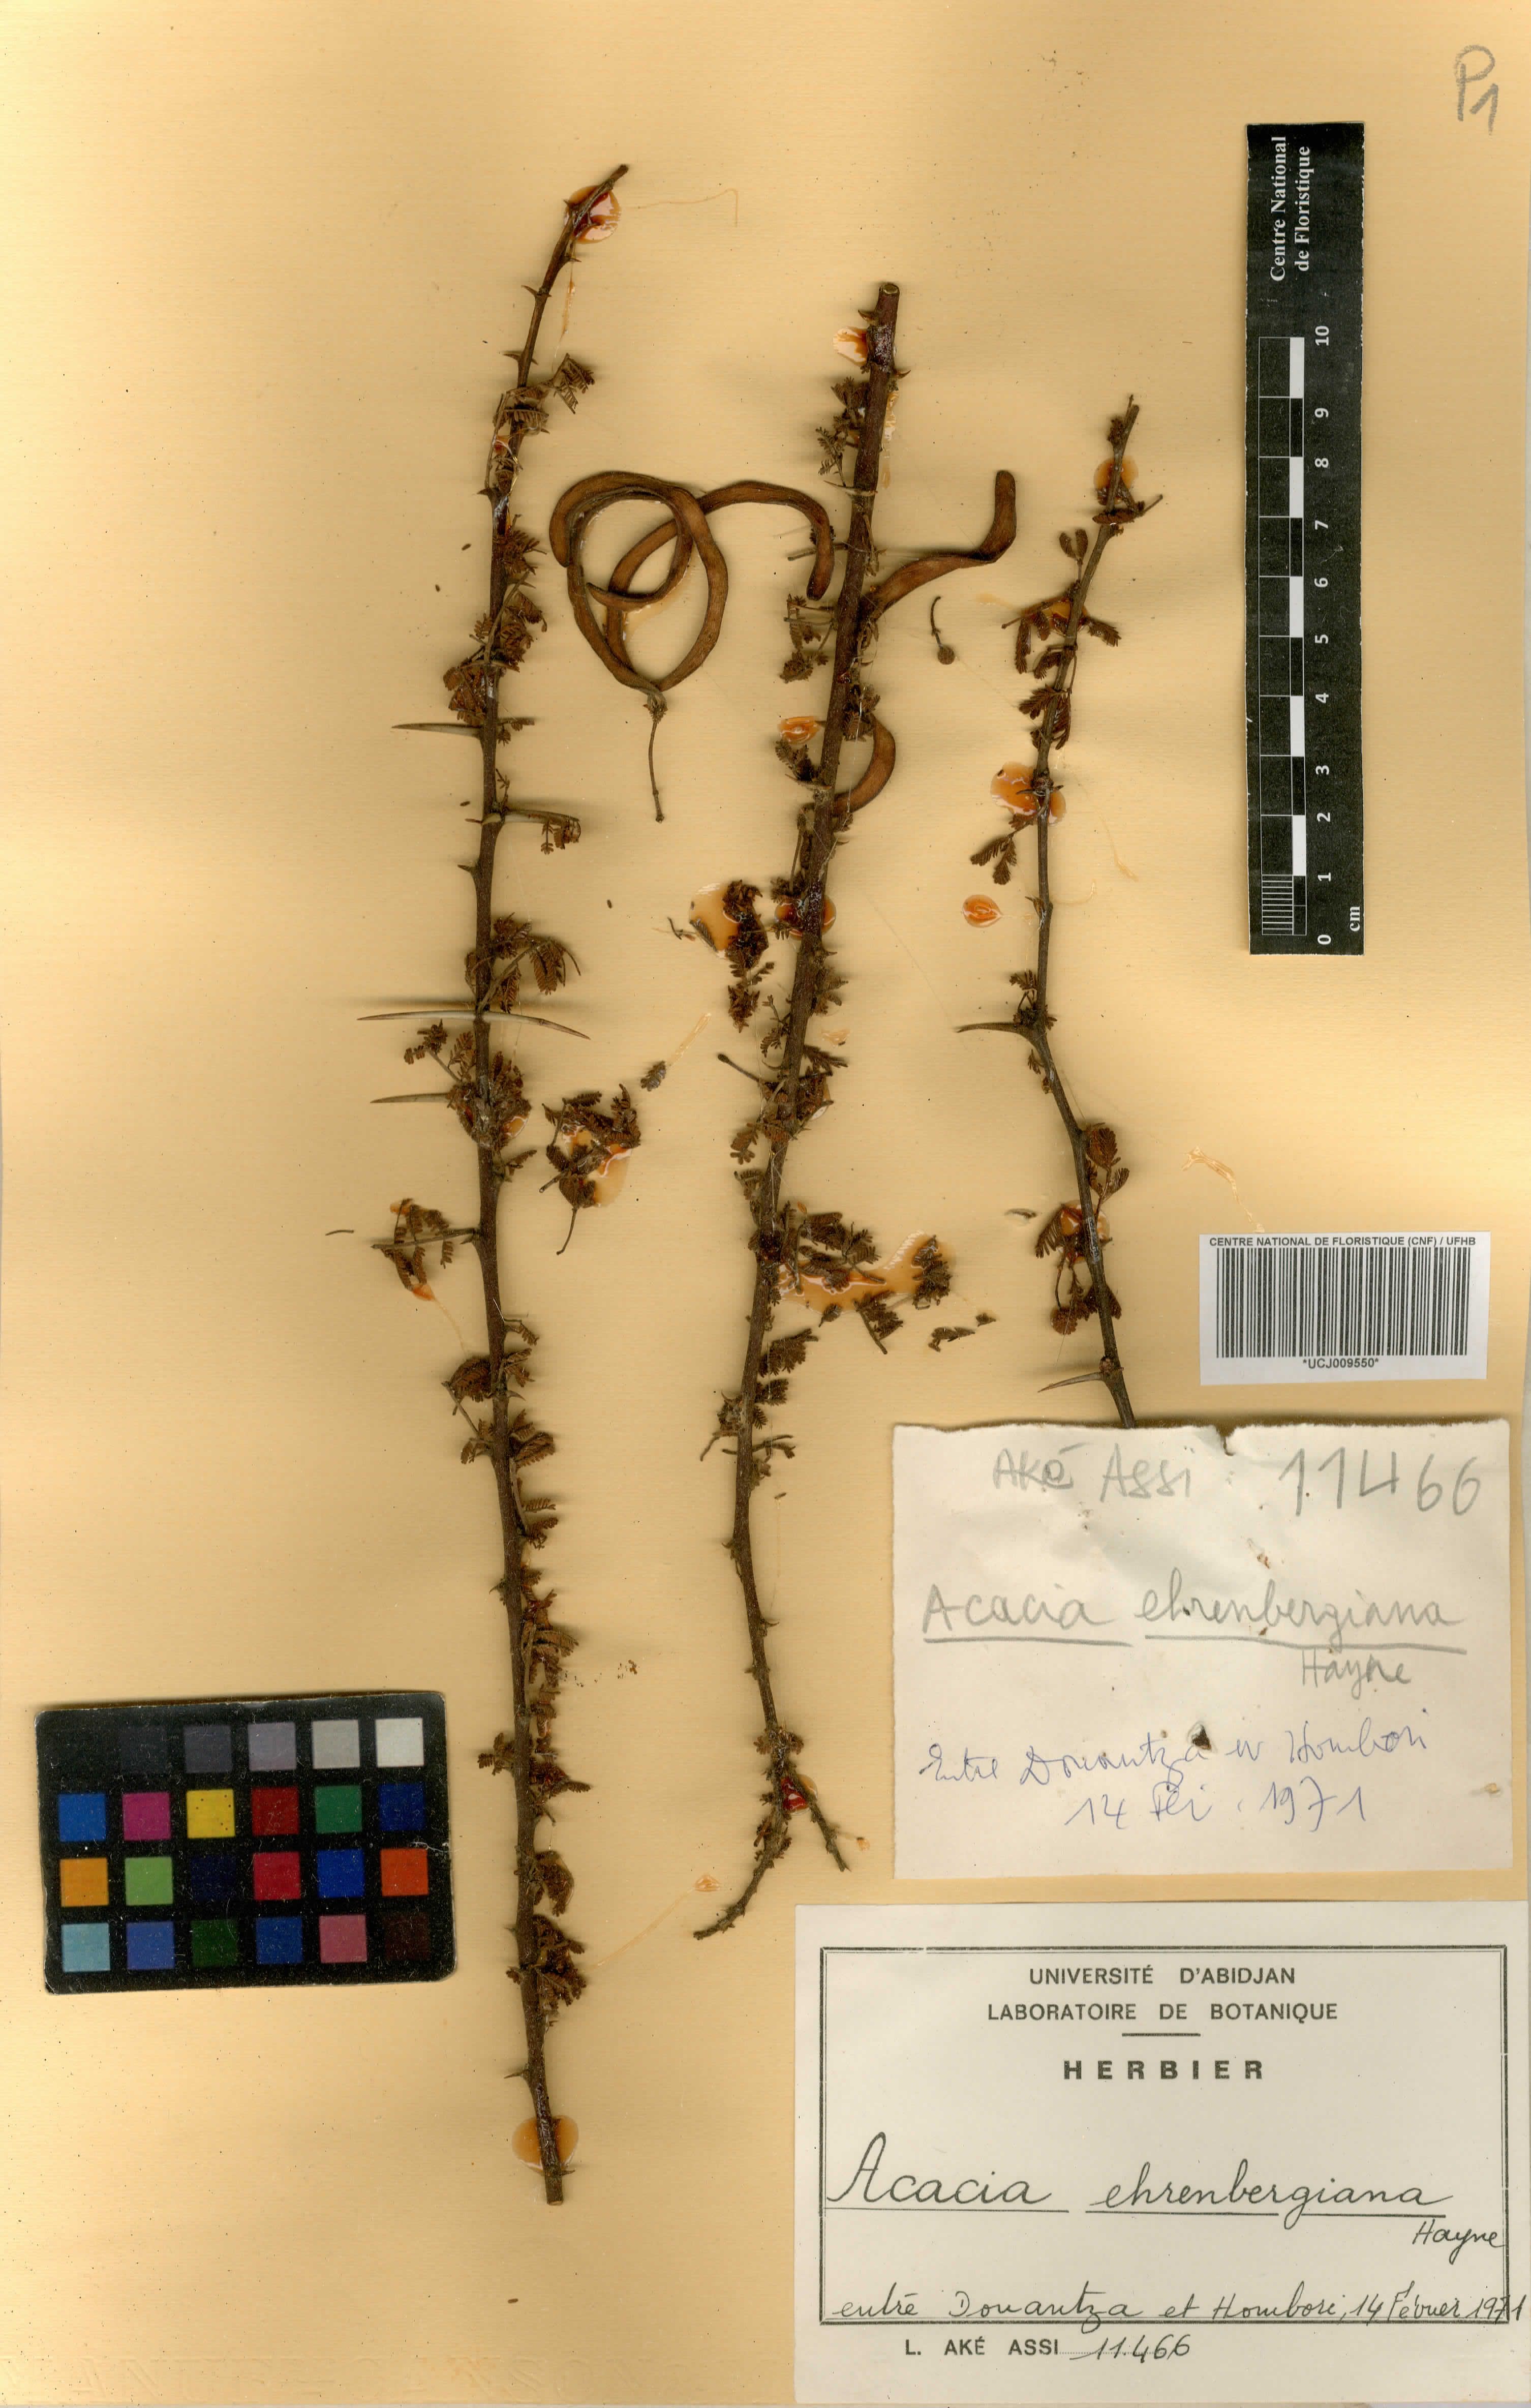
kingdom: Plantae
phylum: Tracheophyta
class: Magnoliopsida
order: Fabales
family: Fabaceae
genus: Vachellia
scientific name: Vachellia flava
